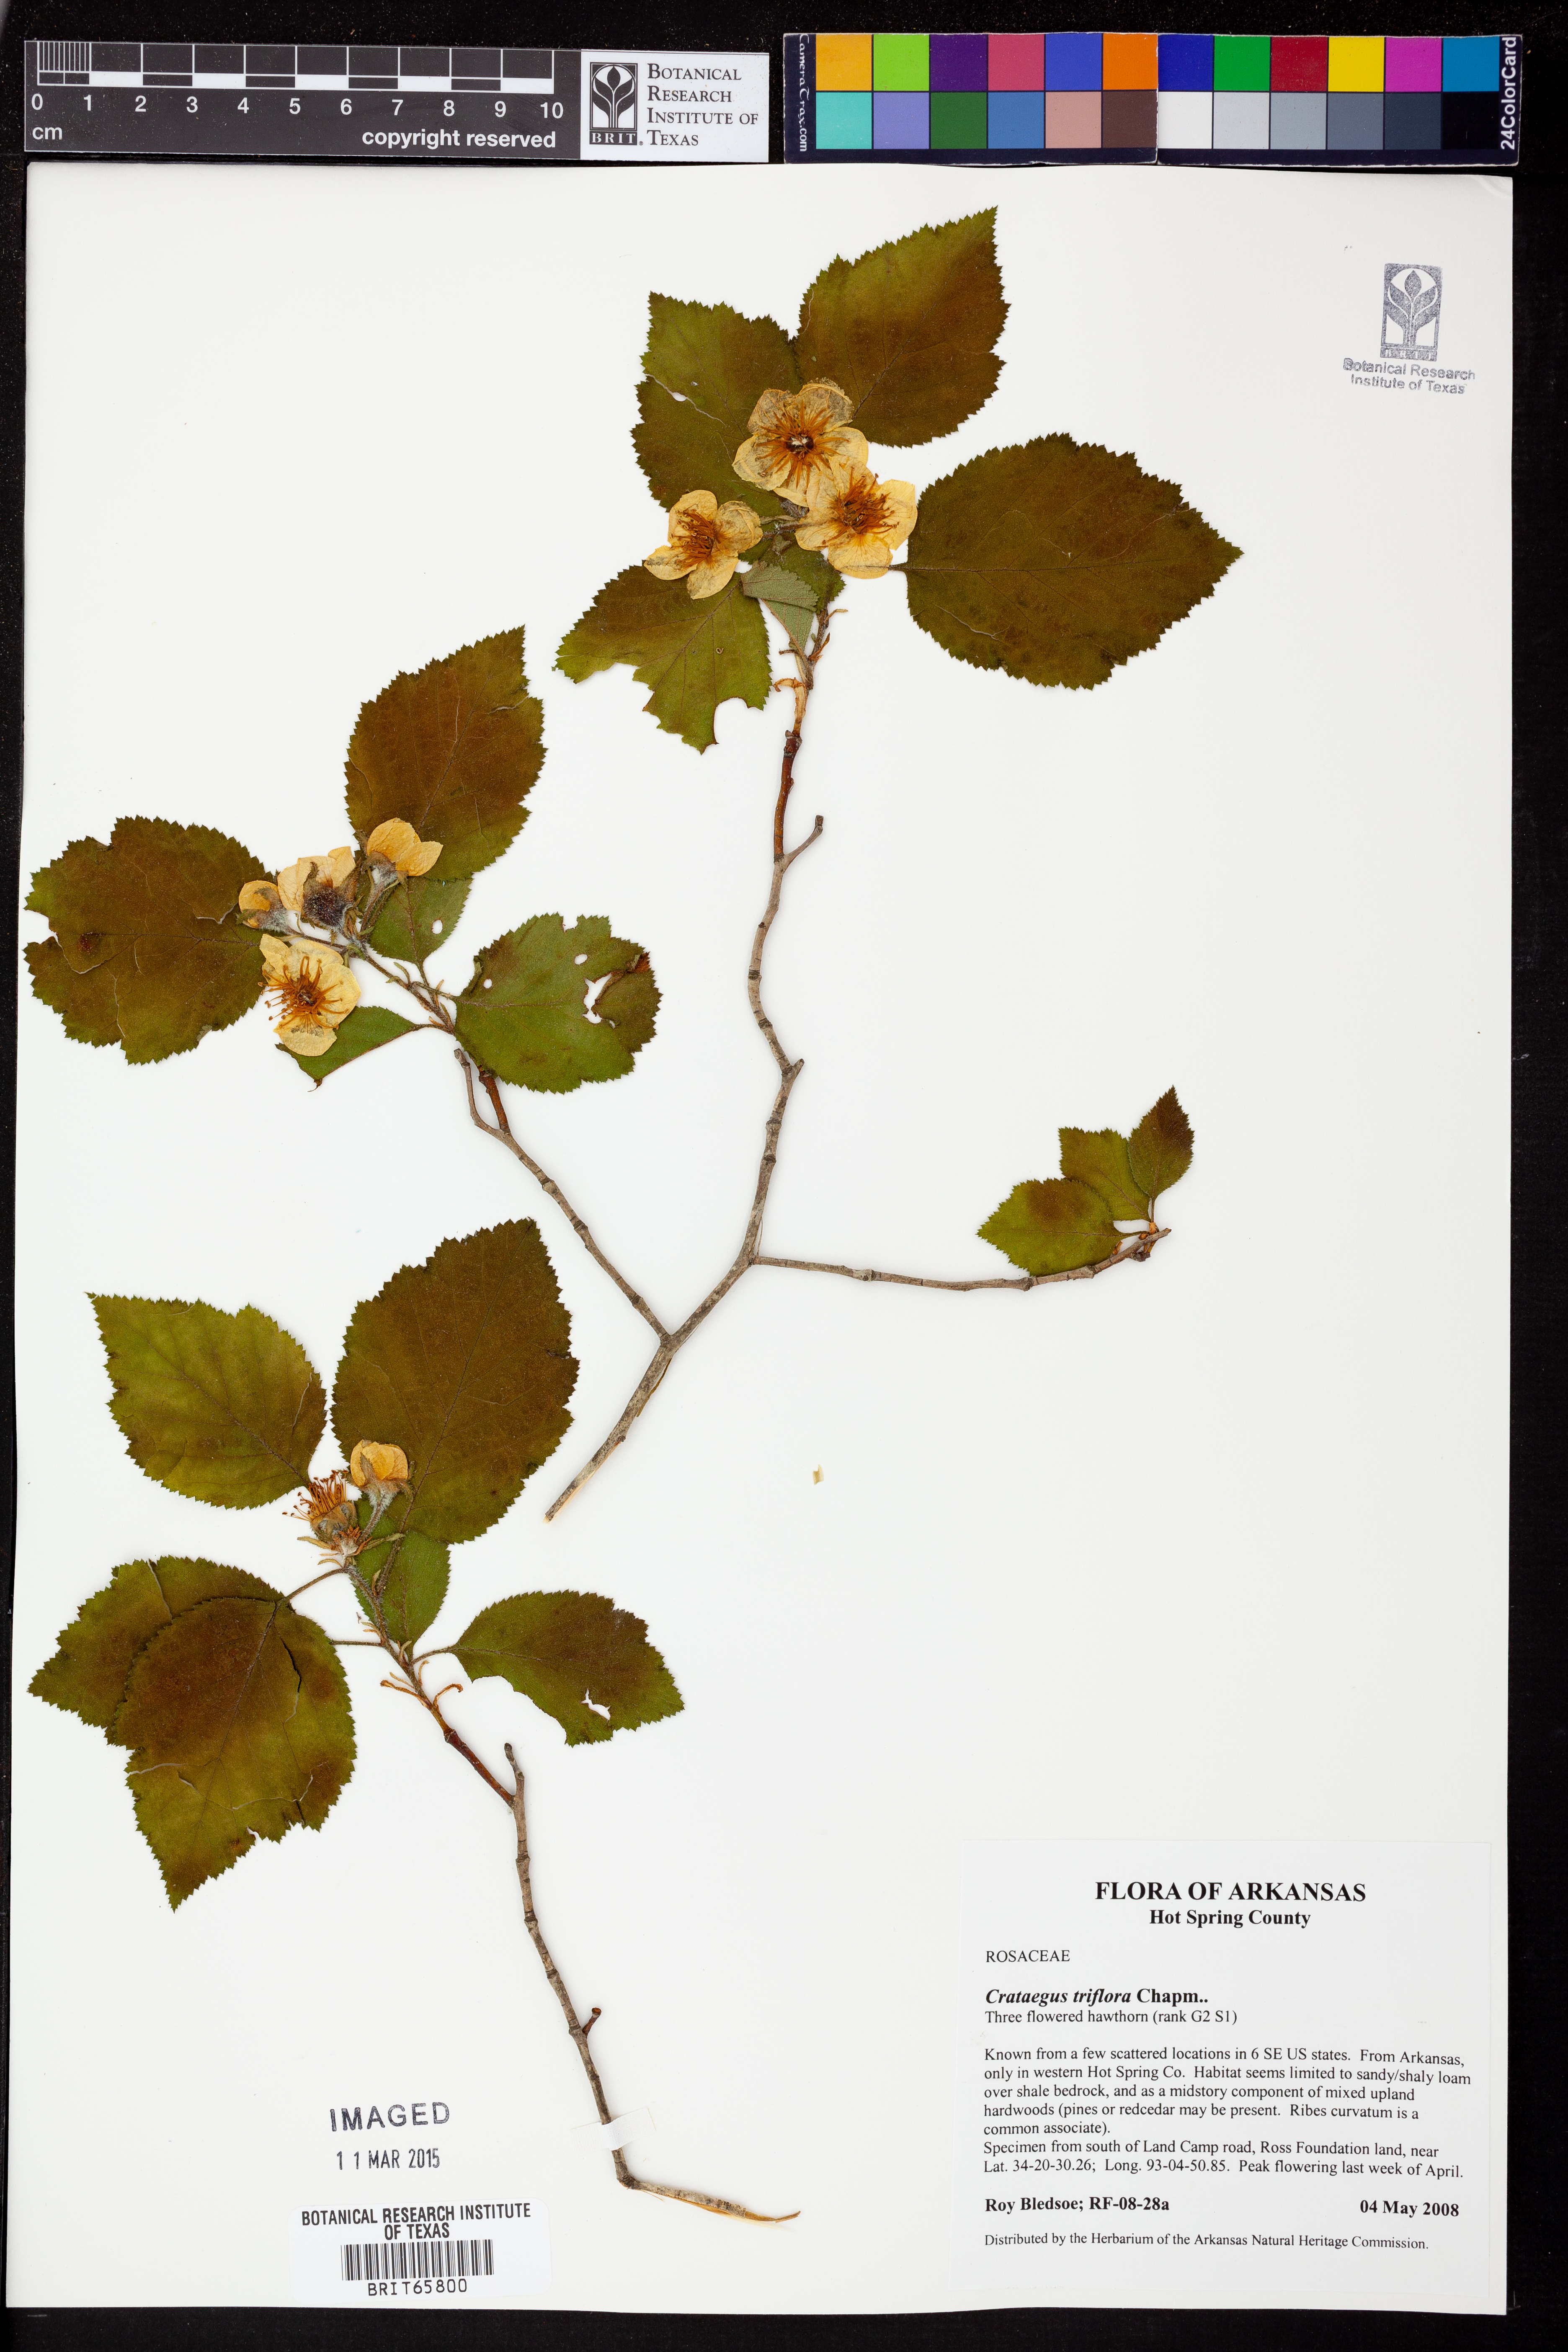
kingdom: Plantae
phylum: Tracheophyta
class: Magnoliopsida
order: Rosales
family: Rosaceae
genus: Crataegus
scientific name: Crataegus
